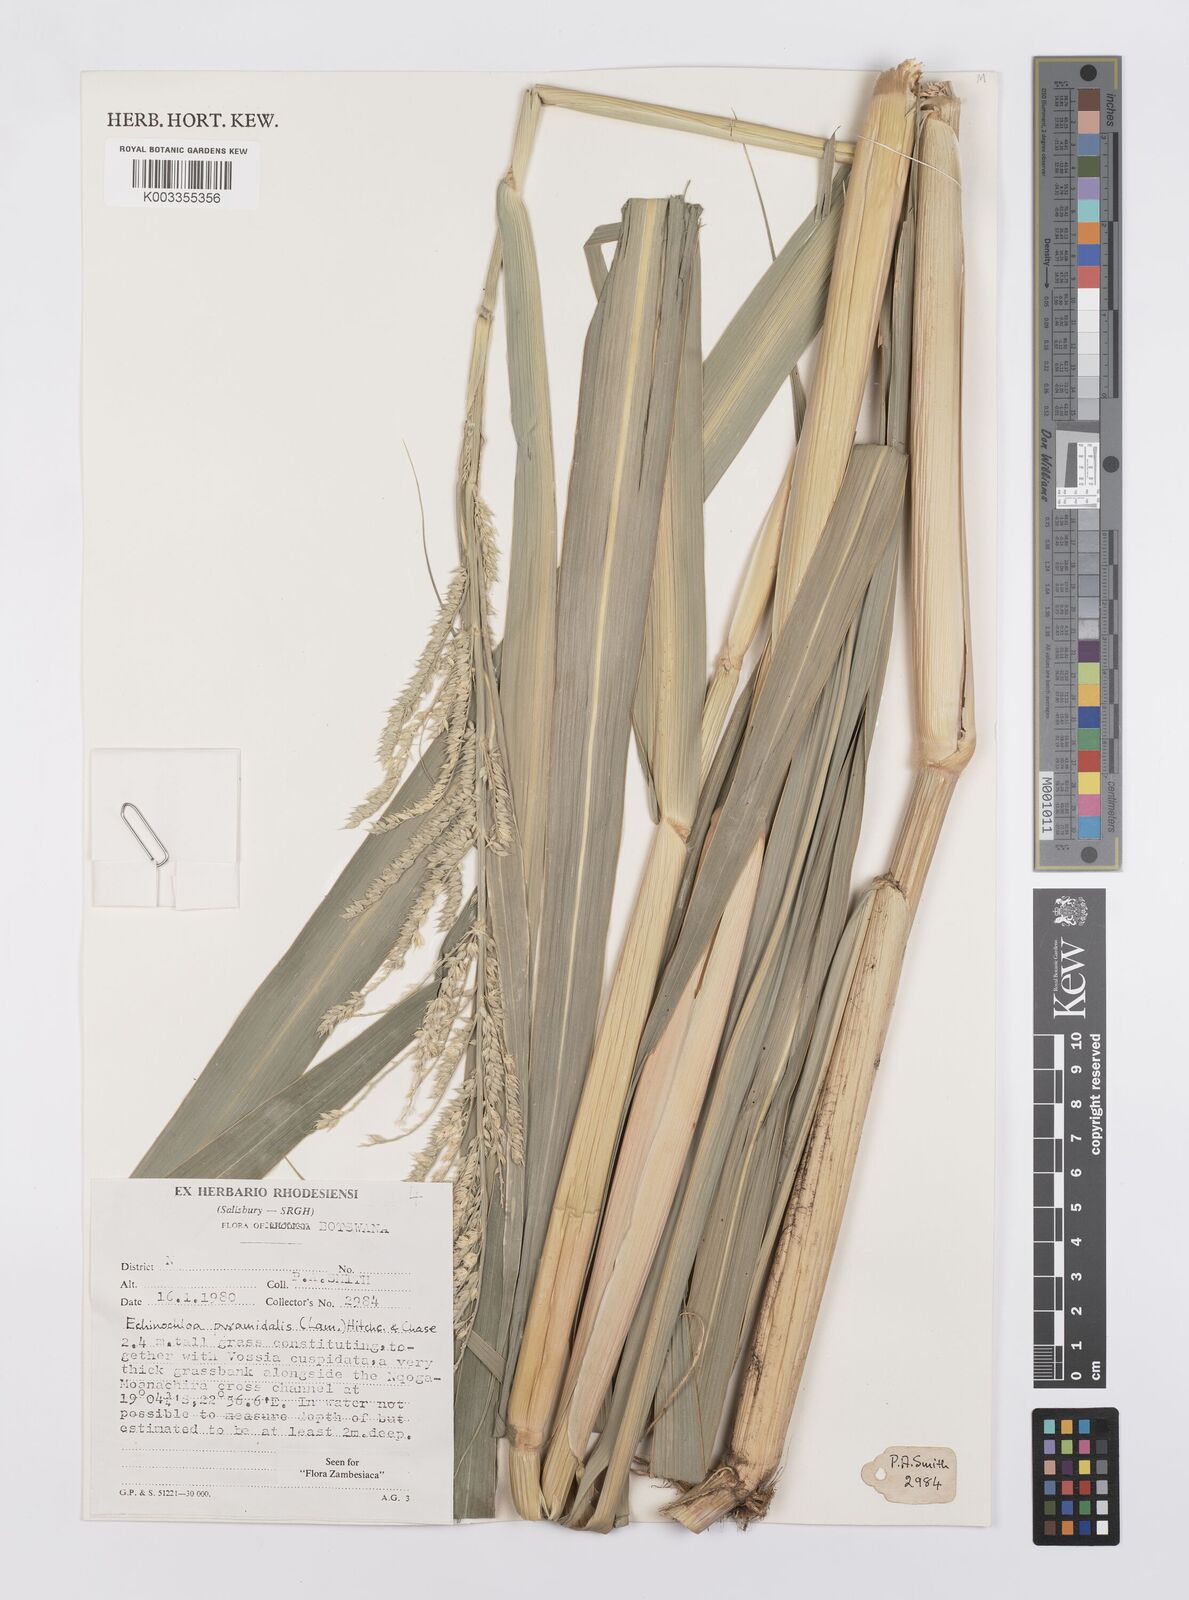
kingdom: Plantae
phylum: Tracheophyta
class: Liliopsida
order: Poales
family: Poaceae
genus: Echinochloa
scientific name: Echinochloa pyramidalis
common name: Antelope grass
